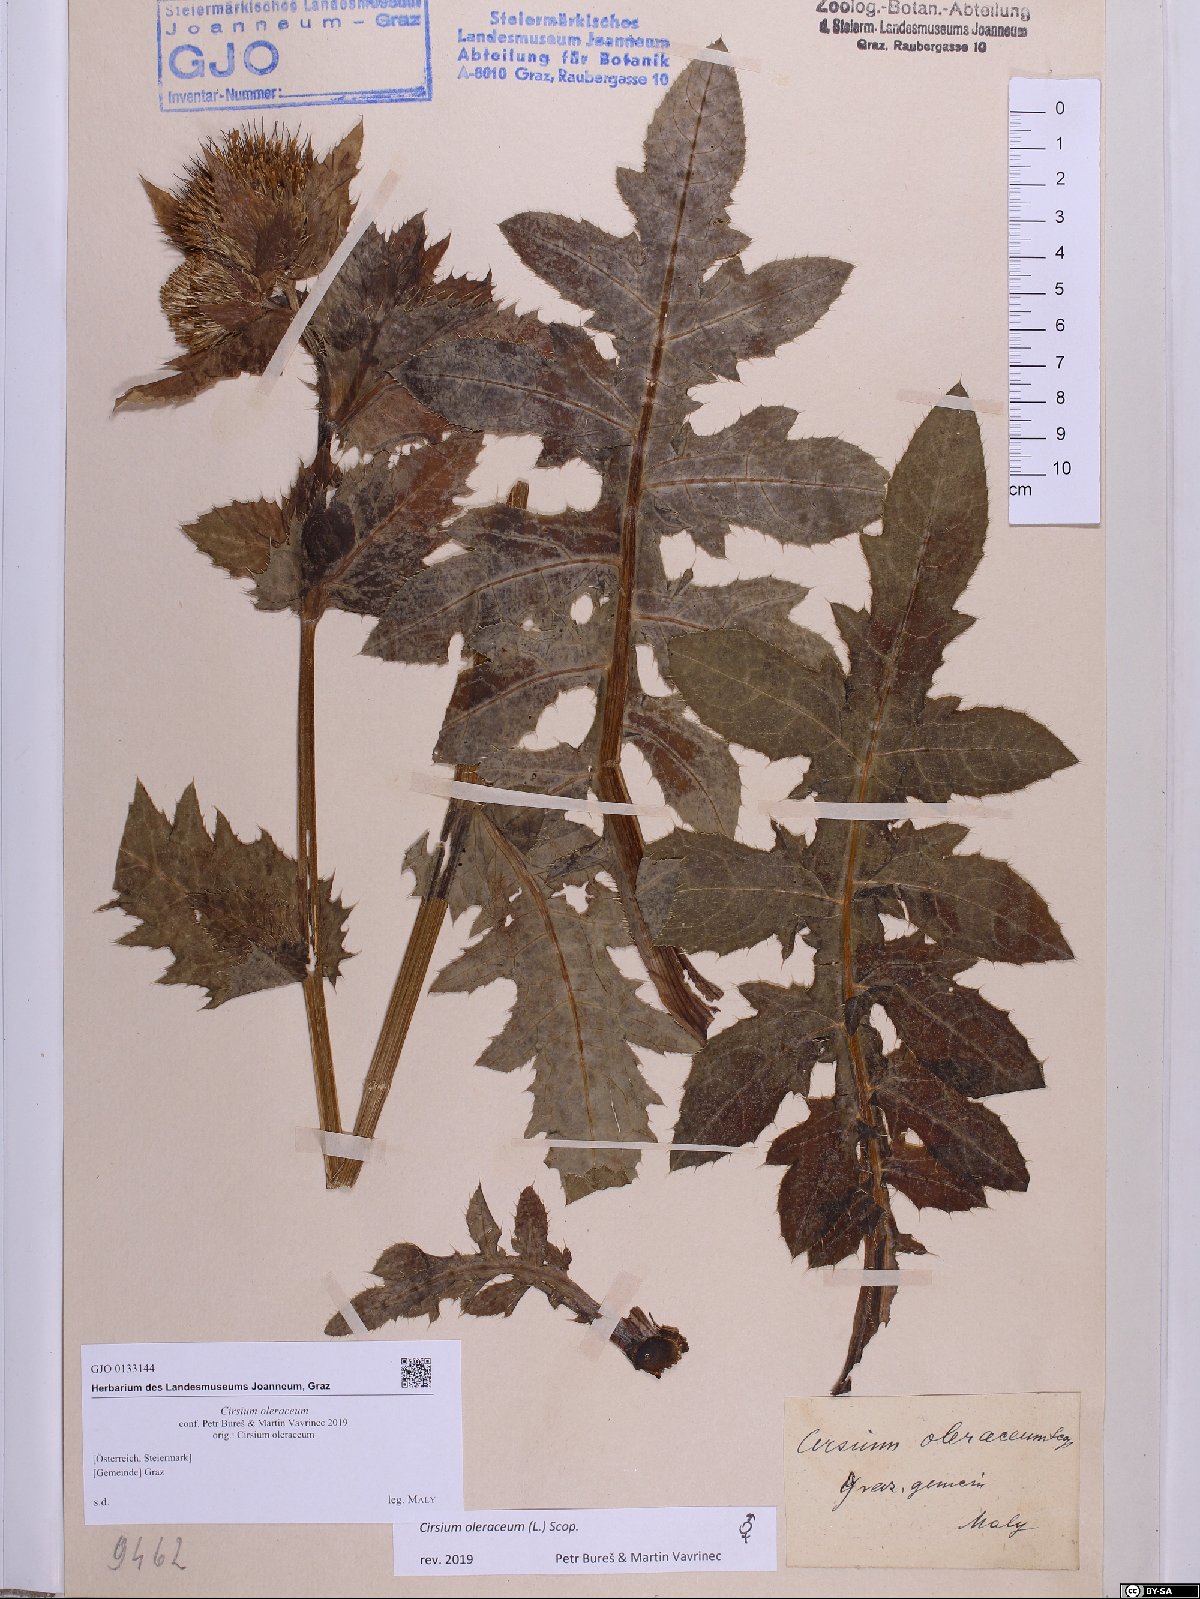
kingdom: Plantae
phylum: Tracheophyta
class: Magnoliopsida
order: Asterales
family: Asteraceae
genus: Cirsium
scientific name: Cirsium oleraceum
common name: Cabbage thistle
